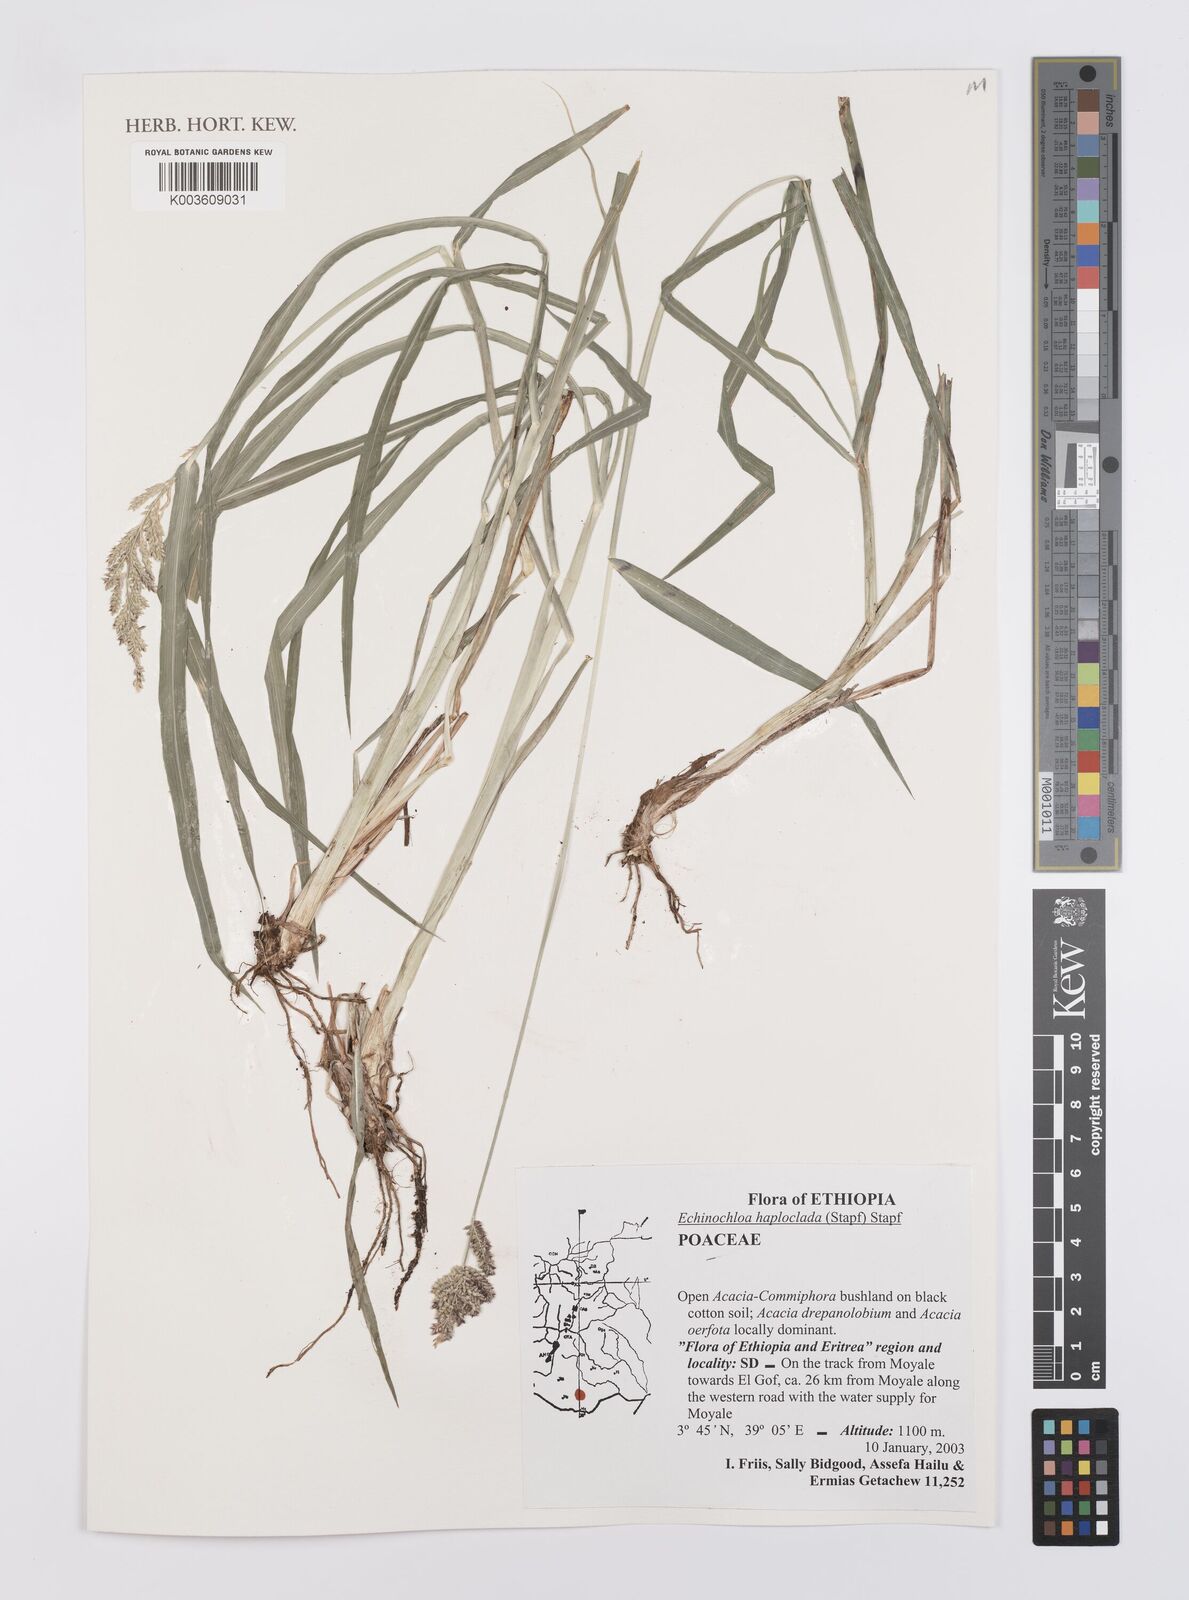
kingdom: Plantae
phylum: Tracheophyta
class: Liliopsida
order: Poales
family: Poaceae
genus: Echinochloa
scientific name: Echinochloa haploclada
